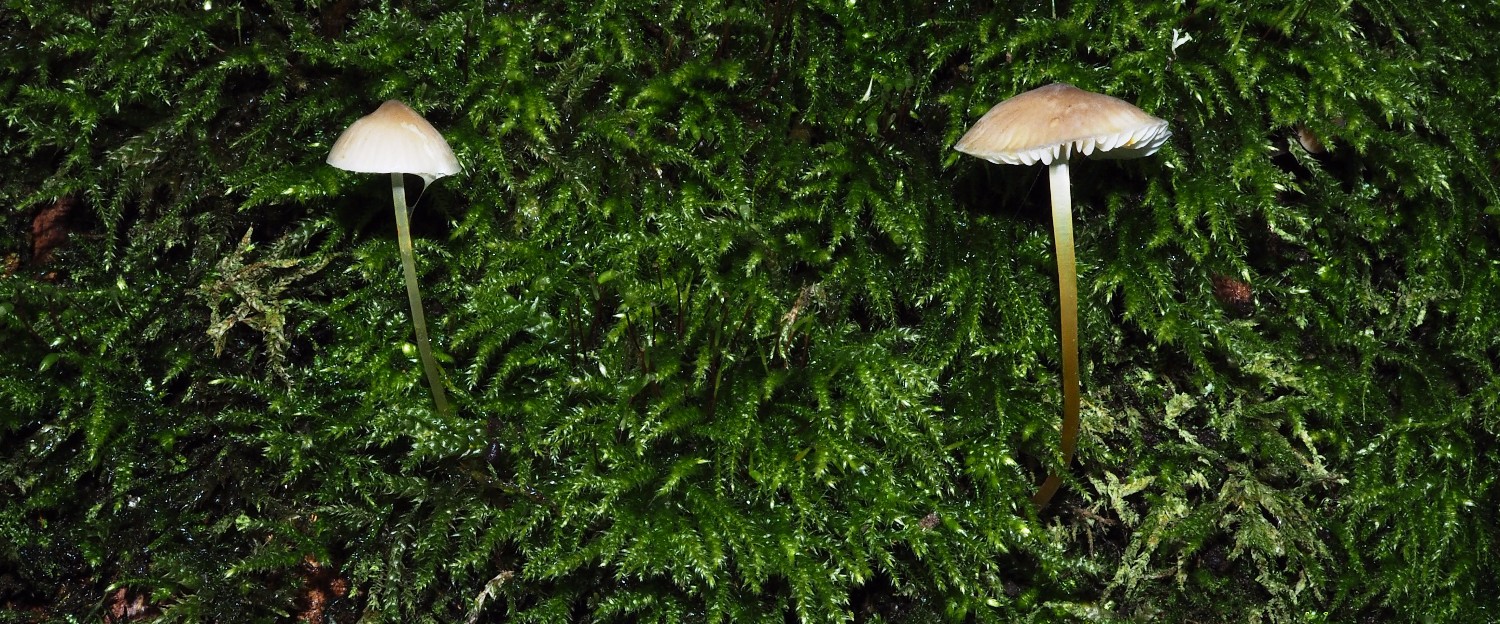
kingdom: Fungi
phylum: Basidiomycota
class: Agaricomycetes
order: Agaricales
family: Mycenaceae
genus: Mycena
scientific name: Mycena crocata
